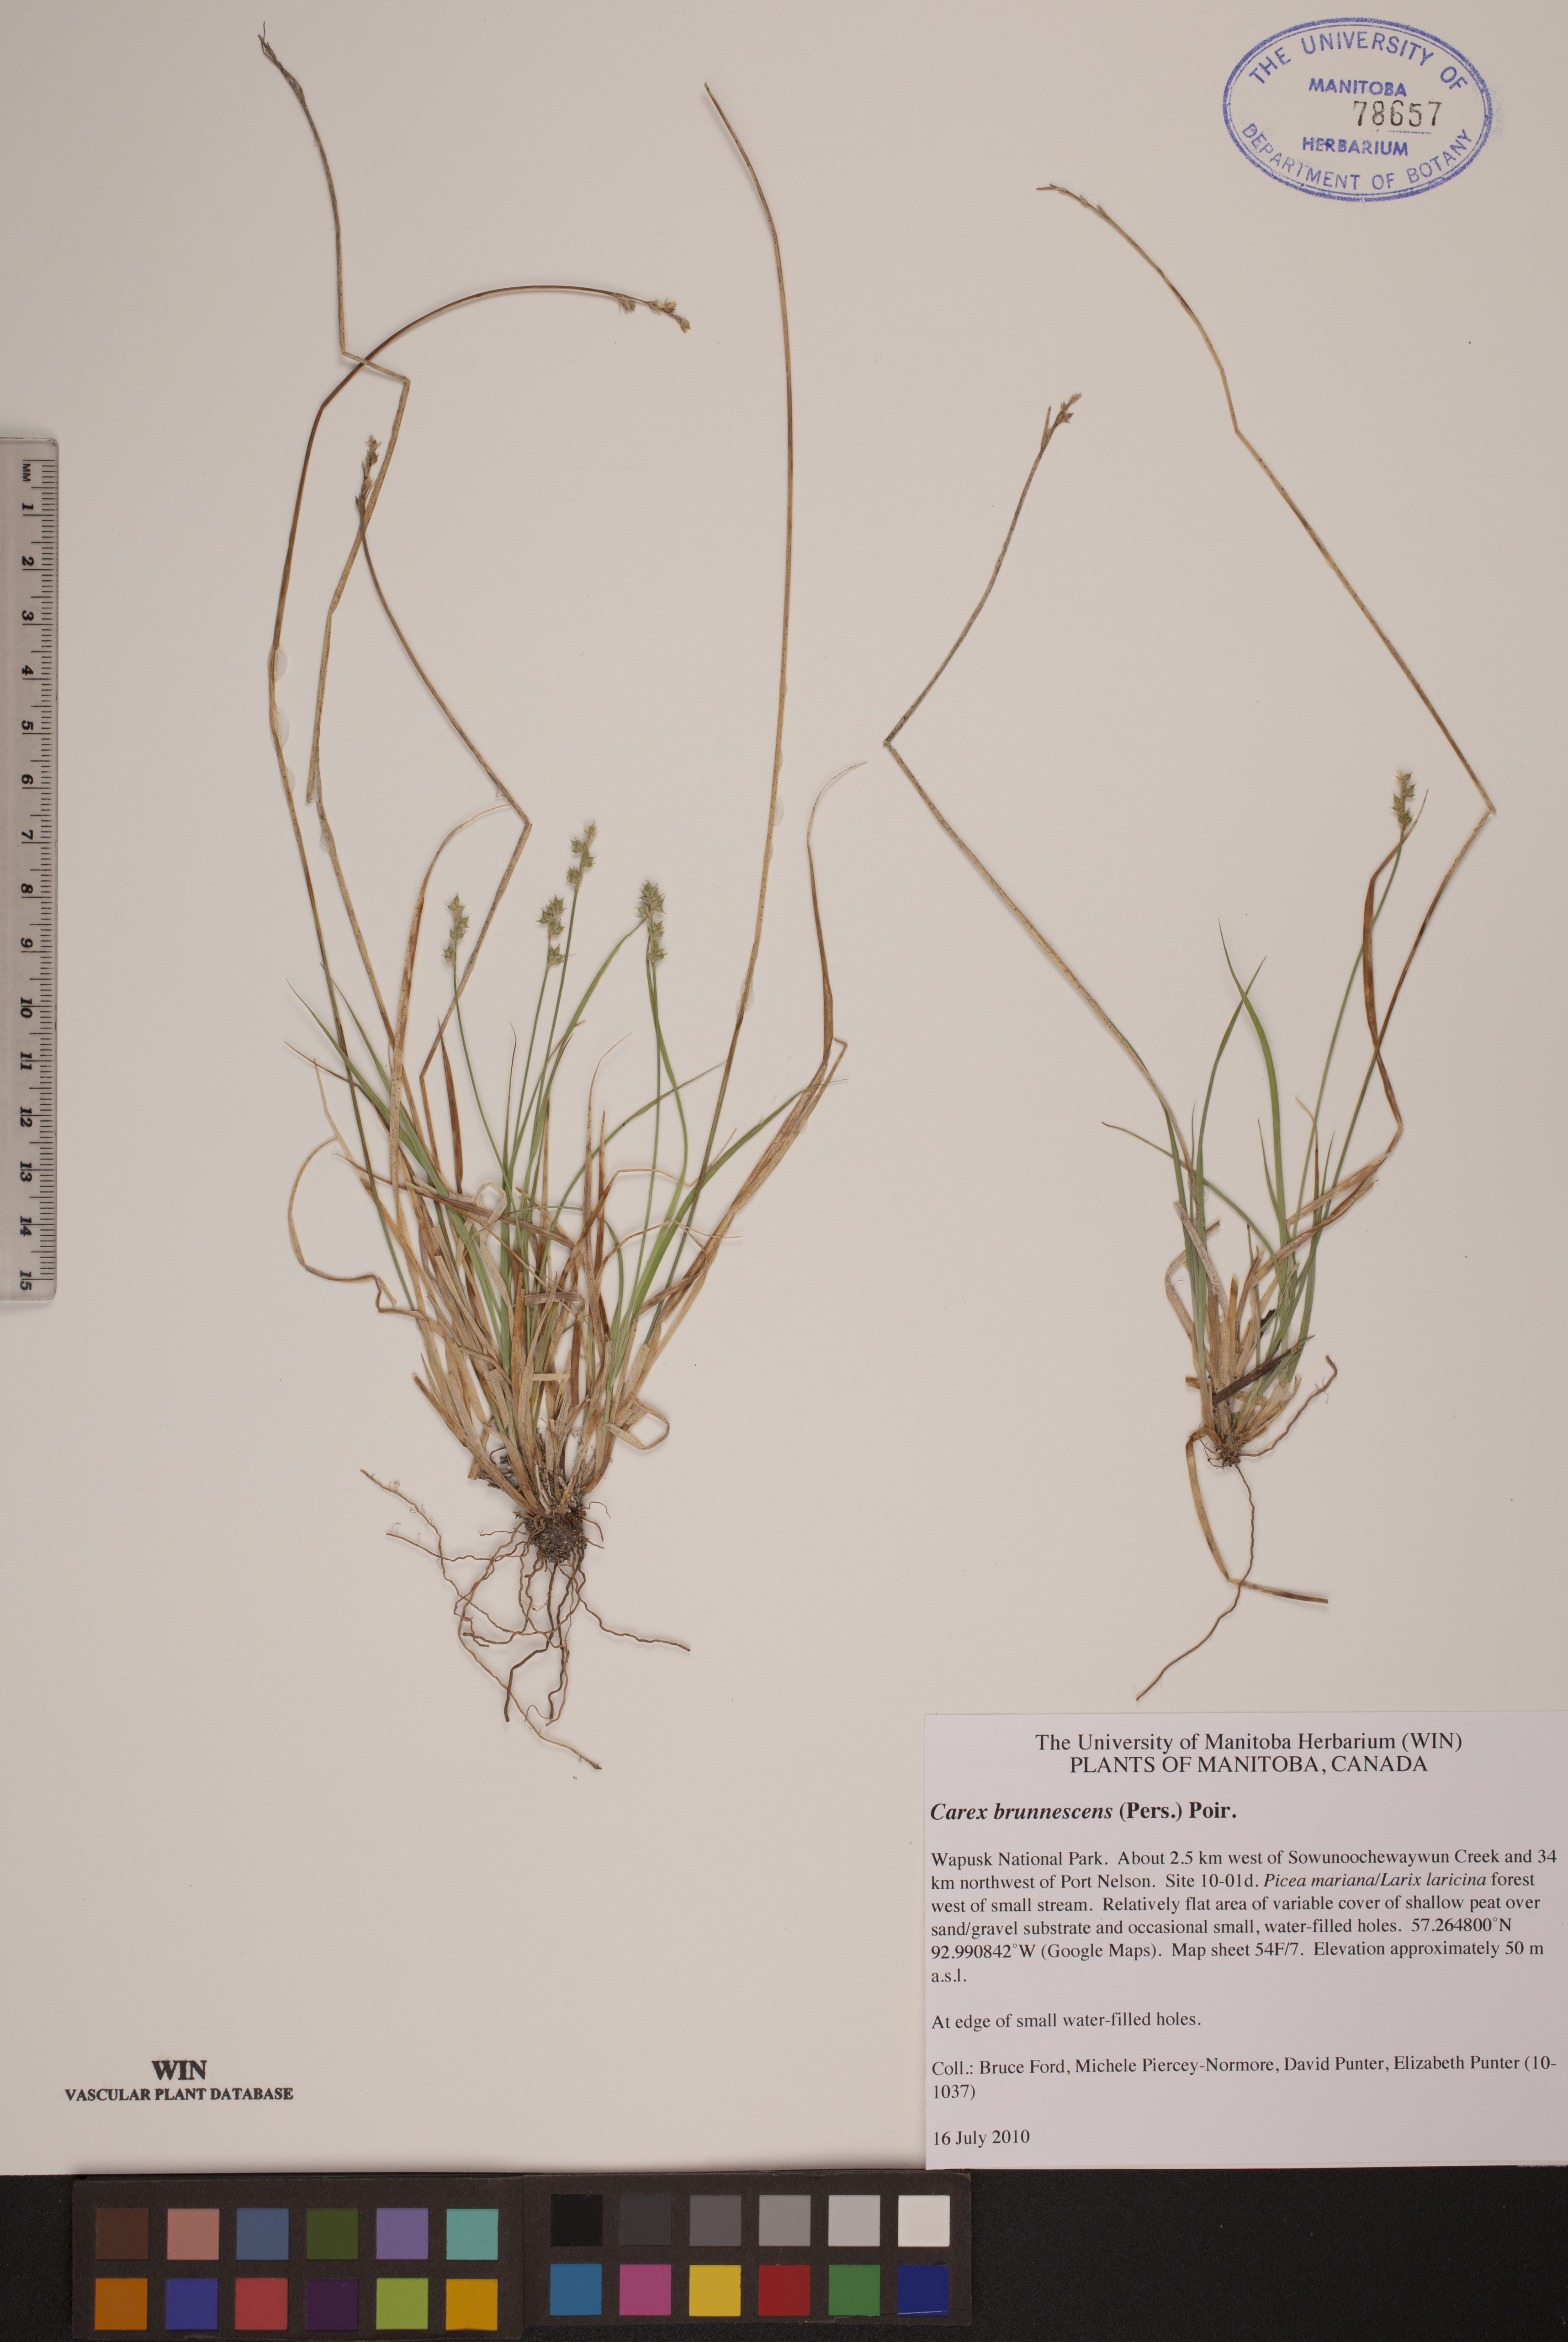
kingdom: Plantae
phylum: Tracheophyta
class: Liliopsida
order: Poales
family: Cyperaceae
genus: Carex
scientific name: Carex brunnescens
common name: Brown sedge
